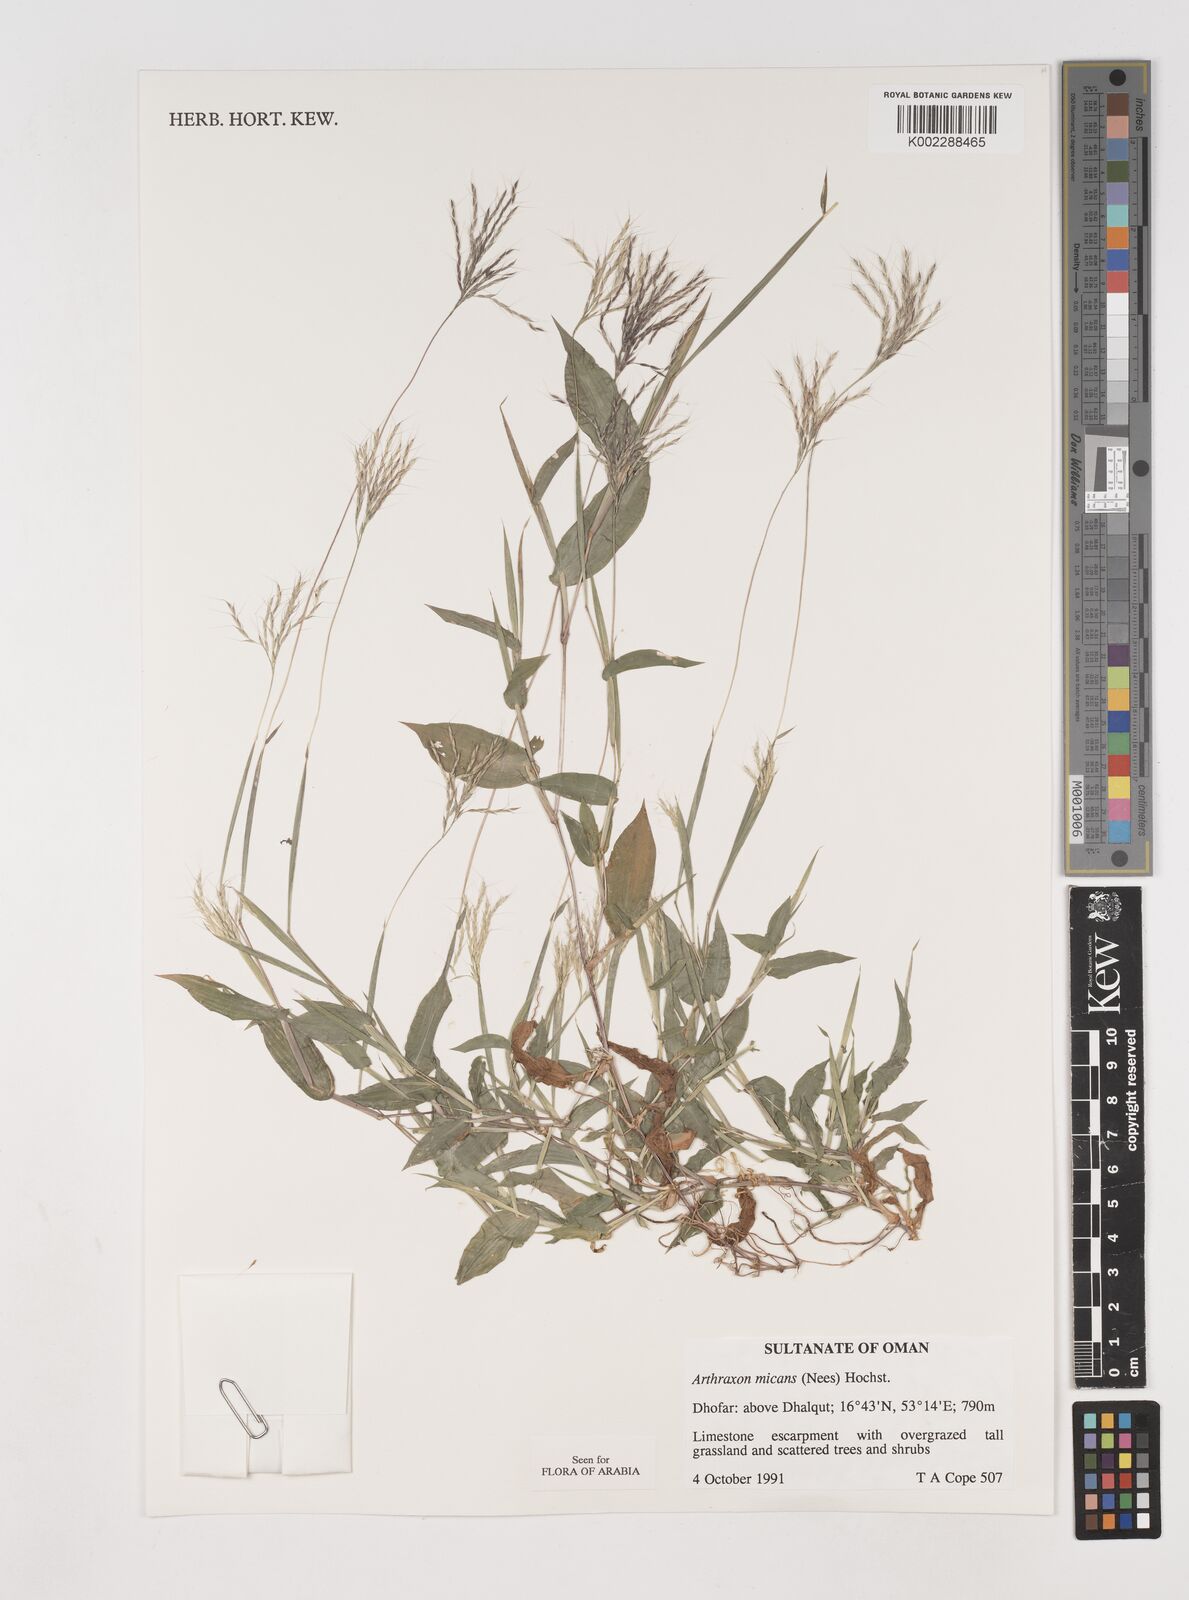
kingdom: Plantae
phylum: Tracheophyta
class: Liliopsida
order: Poales
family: Poaceae
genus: Arthraxon
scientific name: Arthraxon hispidus
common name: Small carpgrass
